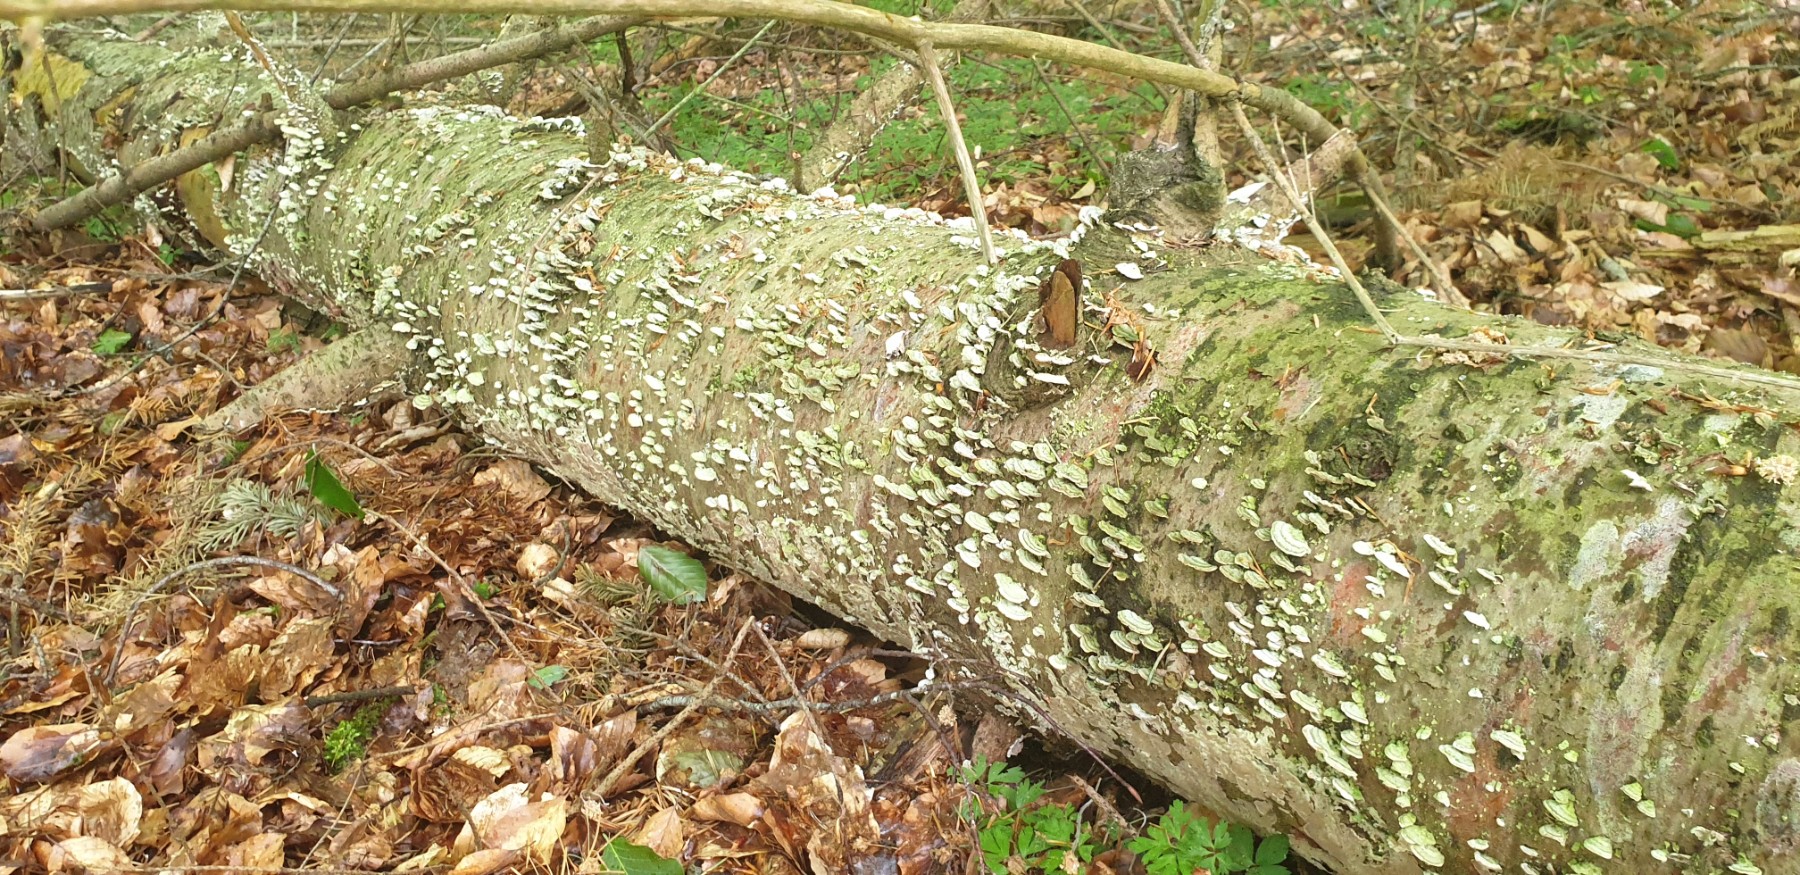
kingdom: Fungi
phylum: Basidiomycota
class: Agaricomycetes
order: Hymenochaetales
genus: Trichaptum
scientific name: Trichaptum abietinum
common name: almindelig violporesvamp
